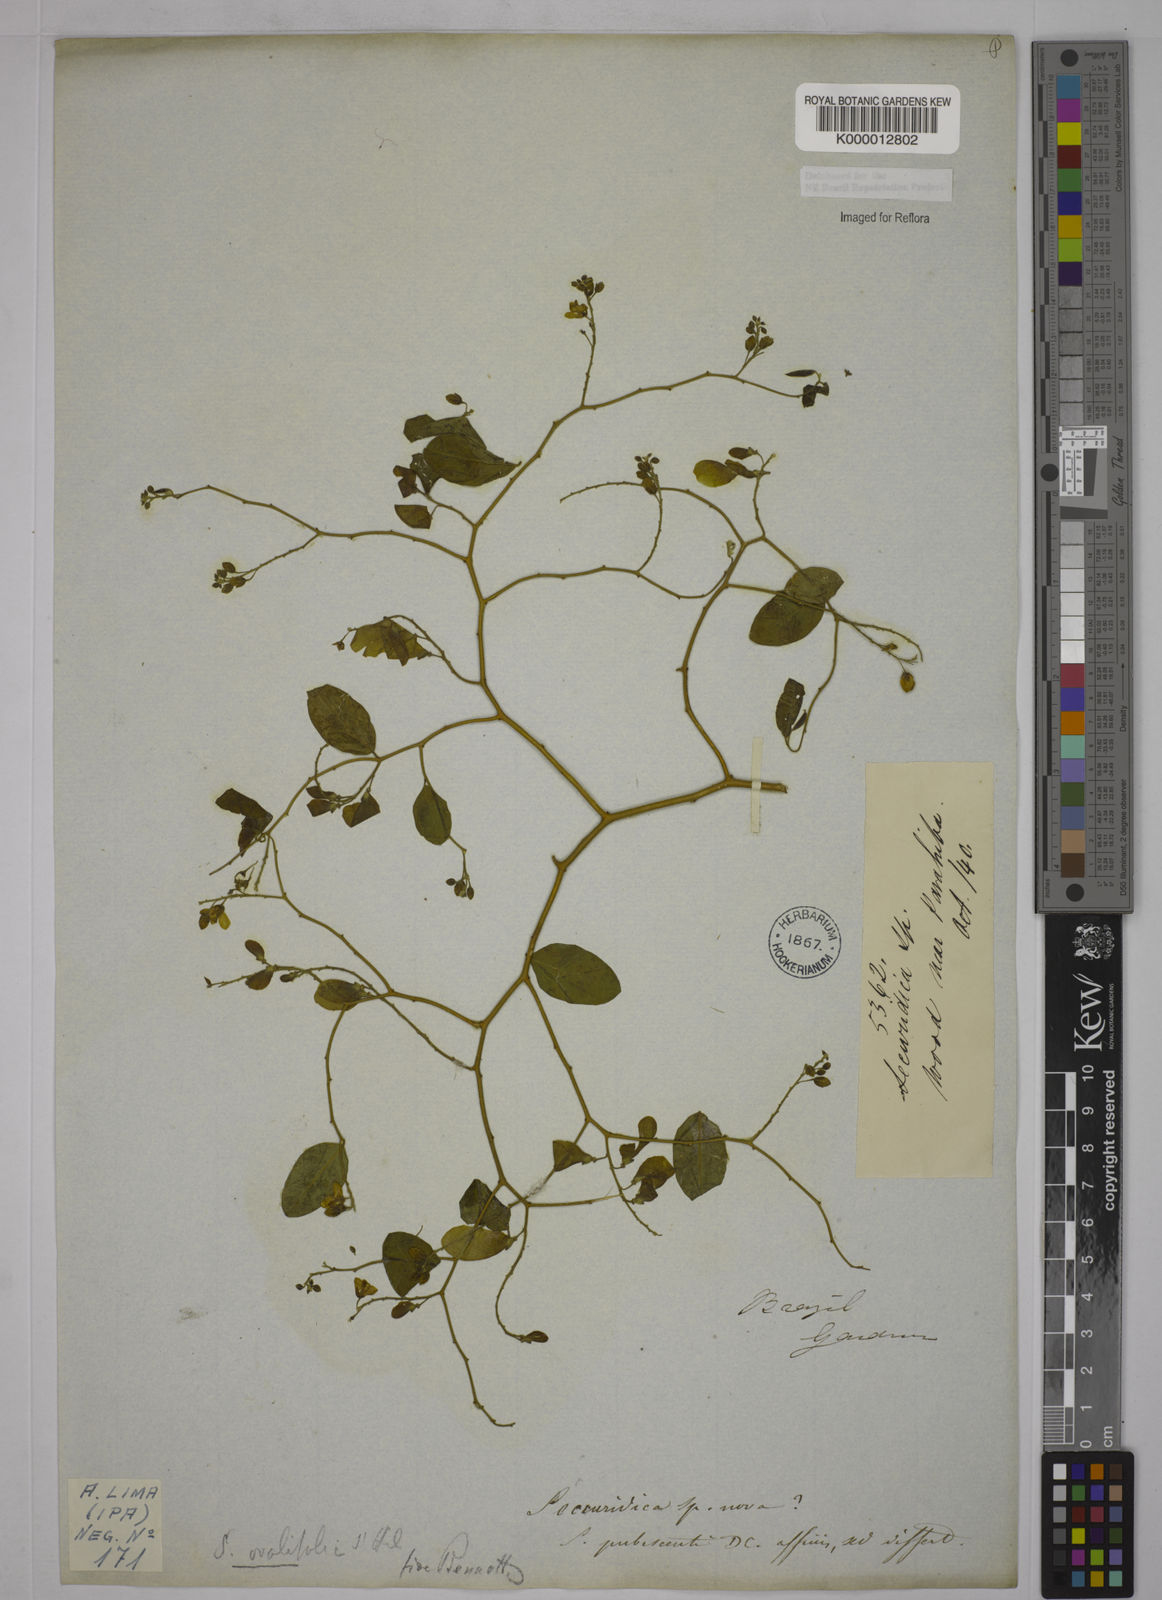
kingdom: Plantae
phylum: Tracheophyta
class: Magnoliopsida
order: Fabales
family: Polygalaceae
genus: Securidaca
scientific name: Securidaca ovalifolia
